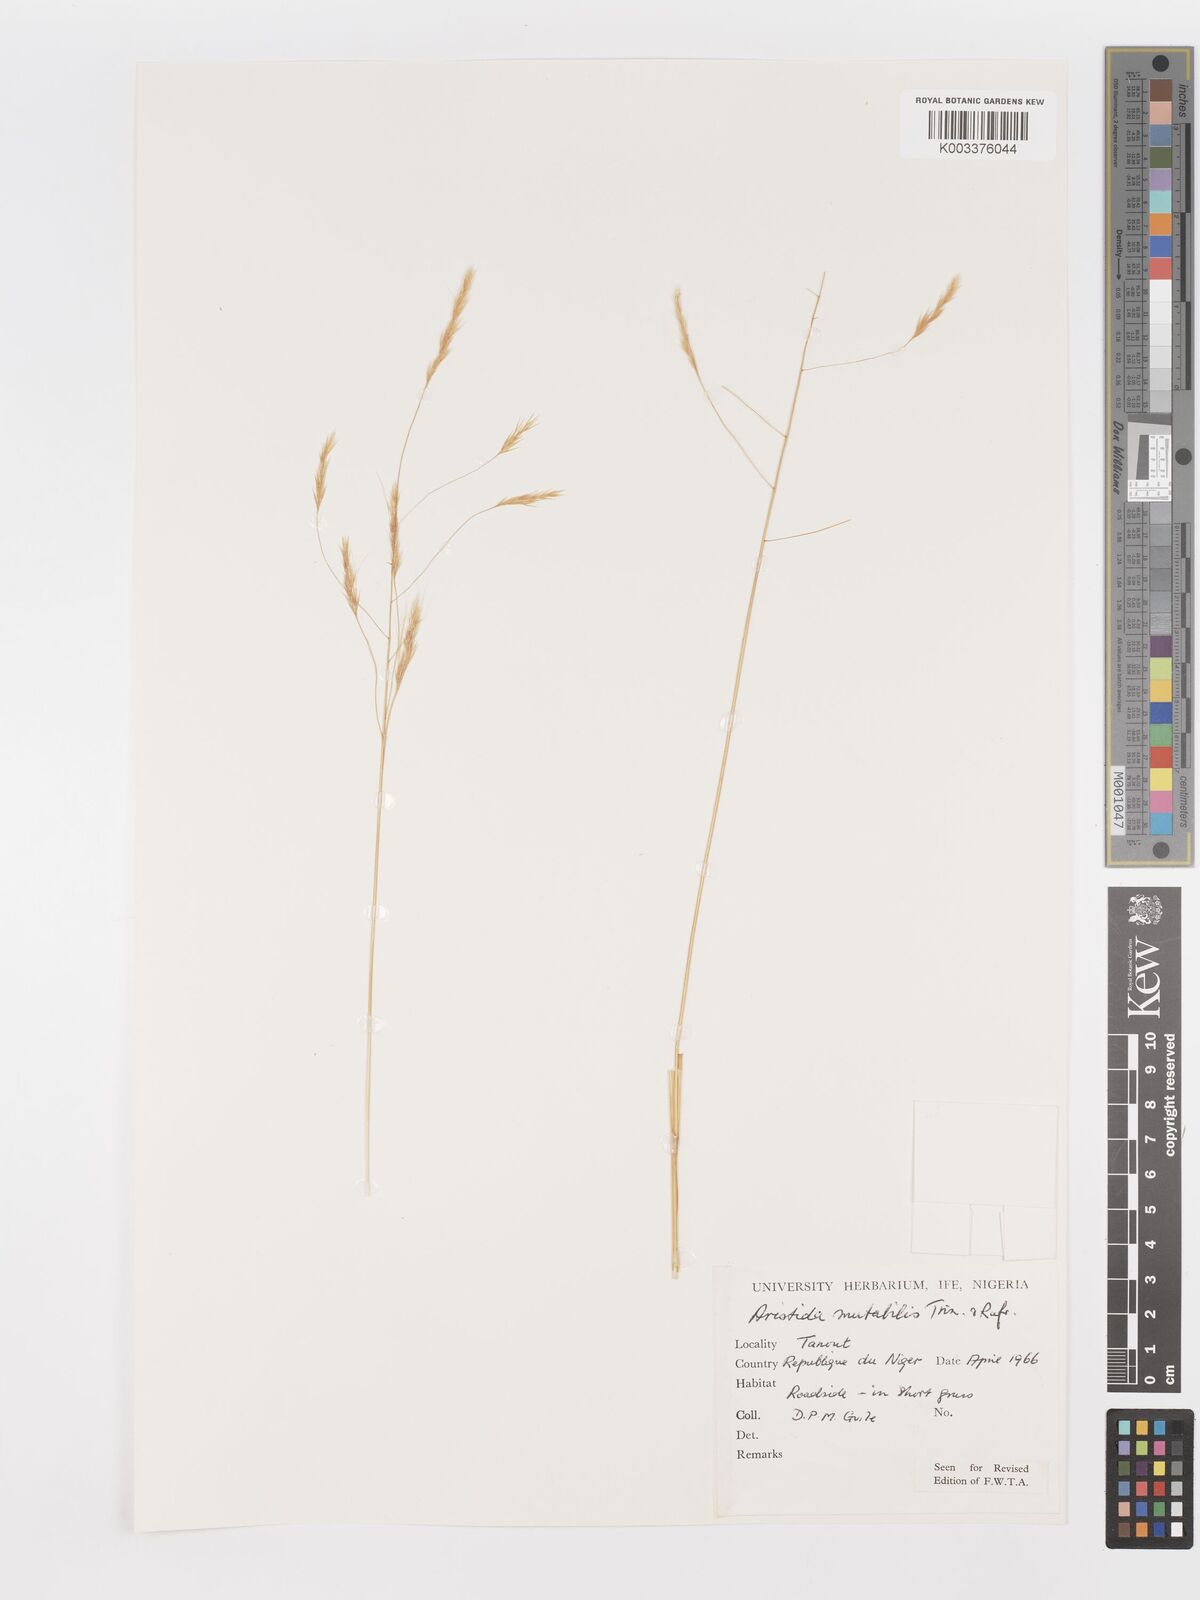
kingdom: Plantae
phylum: Tracheophyta
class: Liliopsida
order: Poales
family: Poaceae
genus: Aristida
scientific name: Aristida mutabilis
